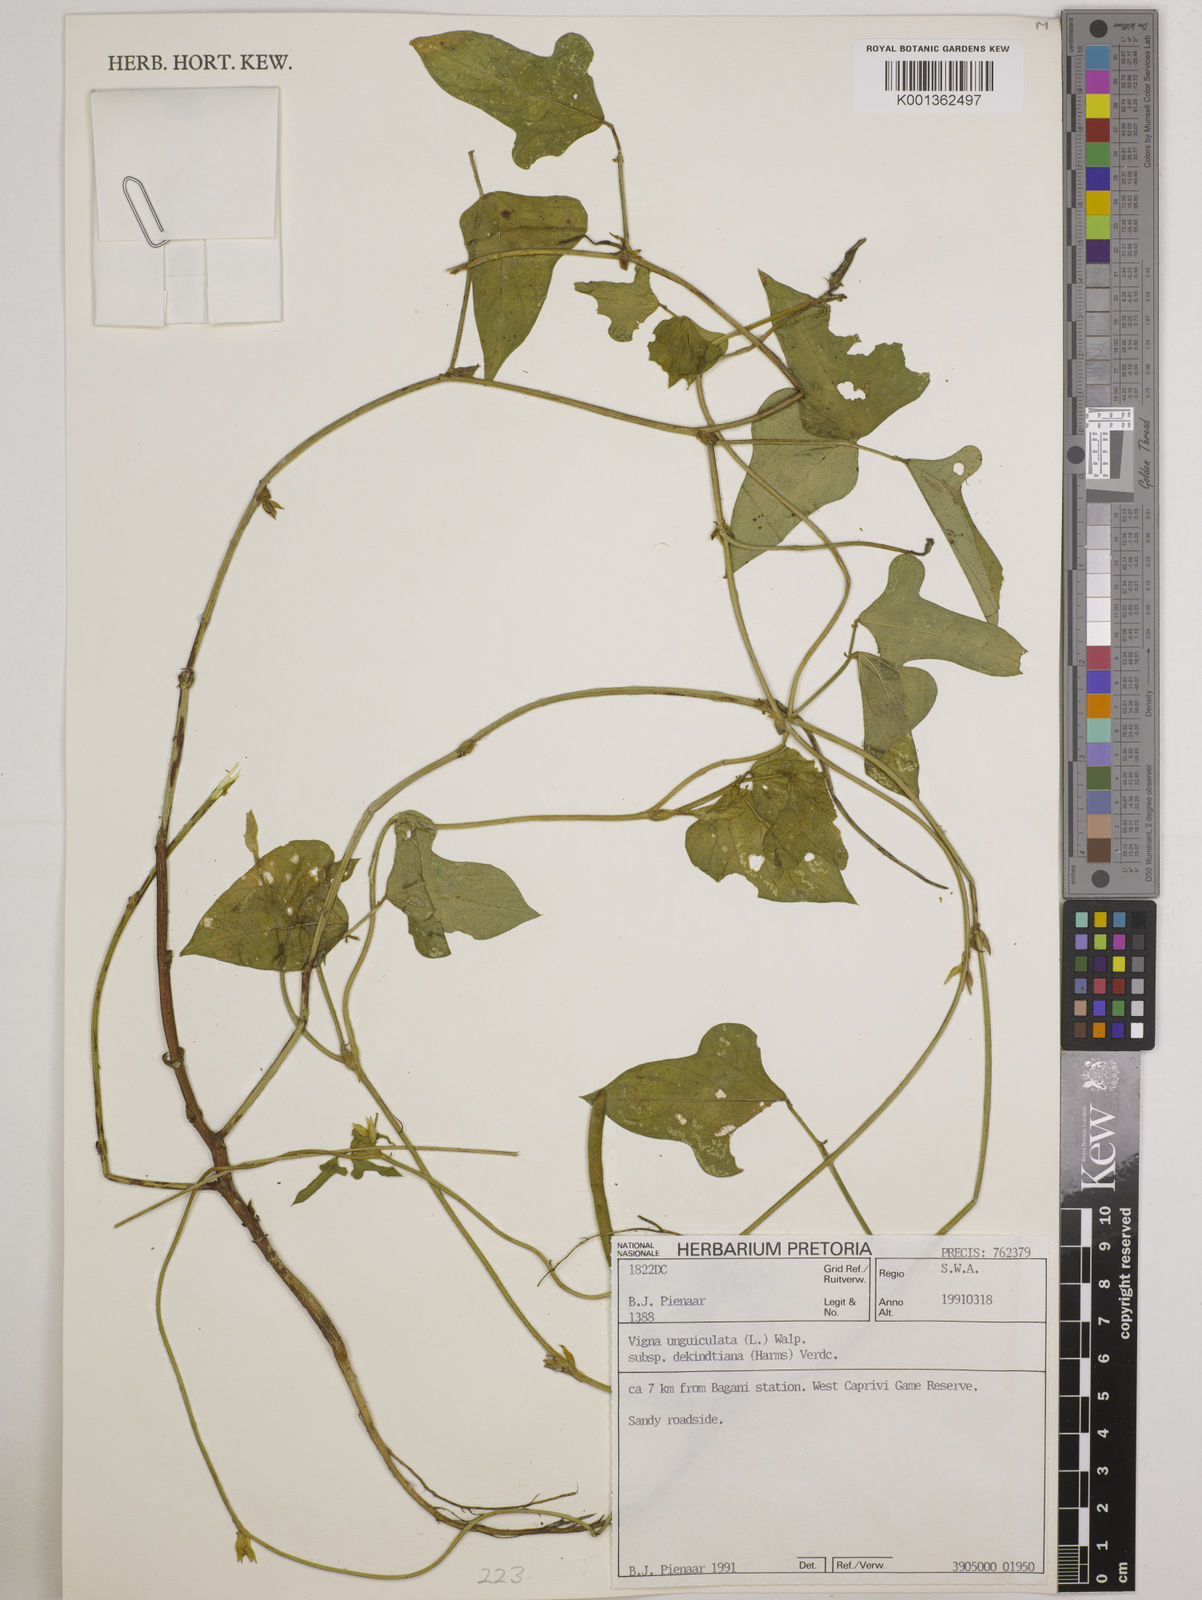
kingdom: Plantae
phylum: Tracheophyta
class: Magnoliopsida
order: Fabales
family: Fabaceae
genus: Vigna
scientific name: Vigna
